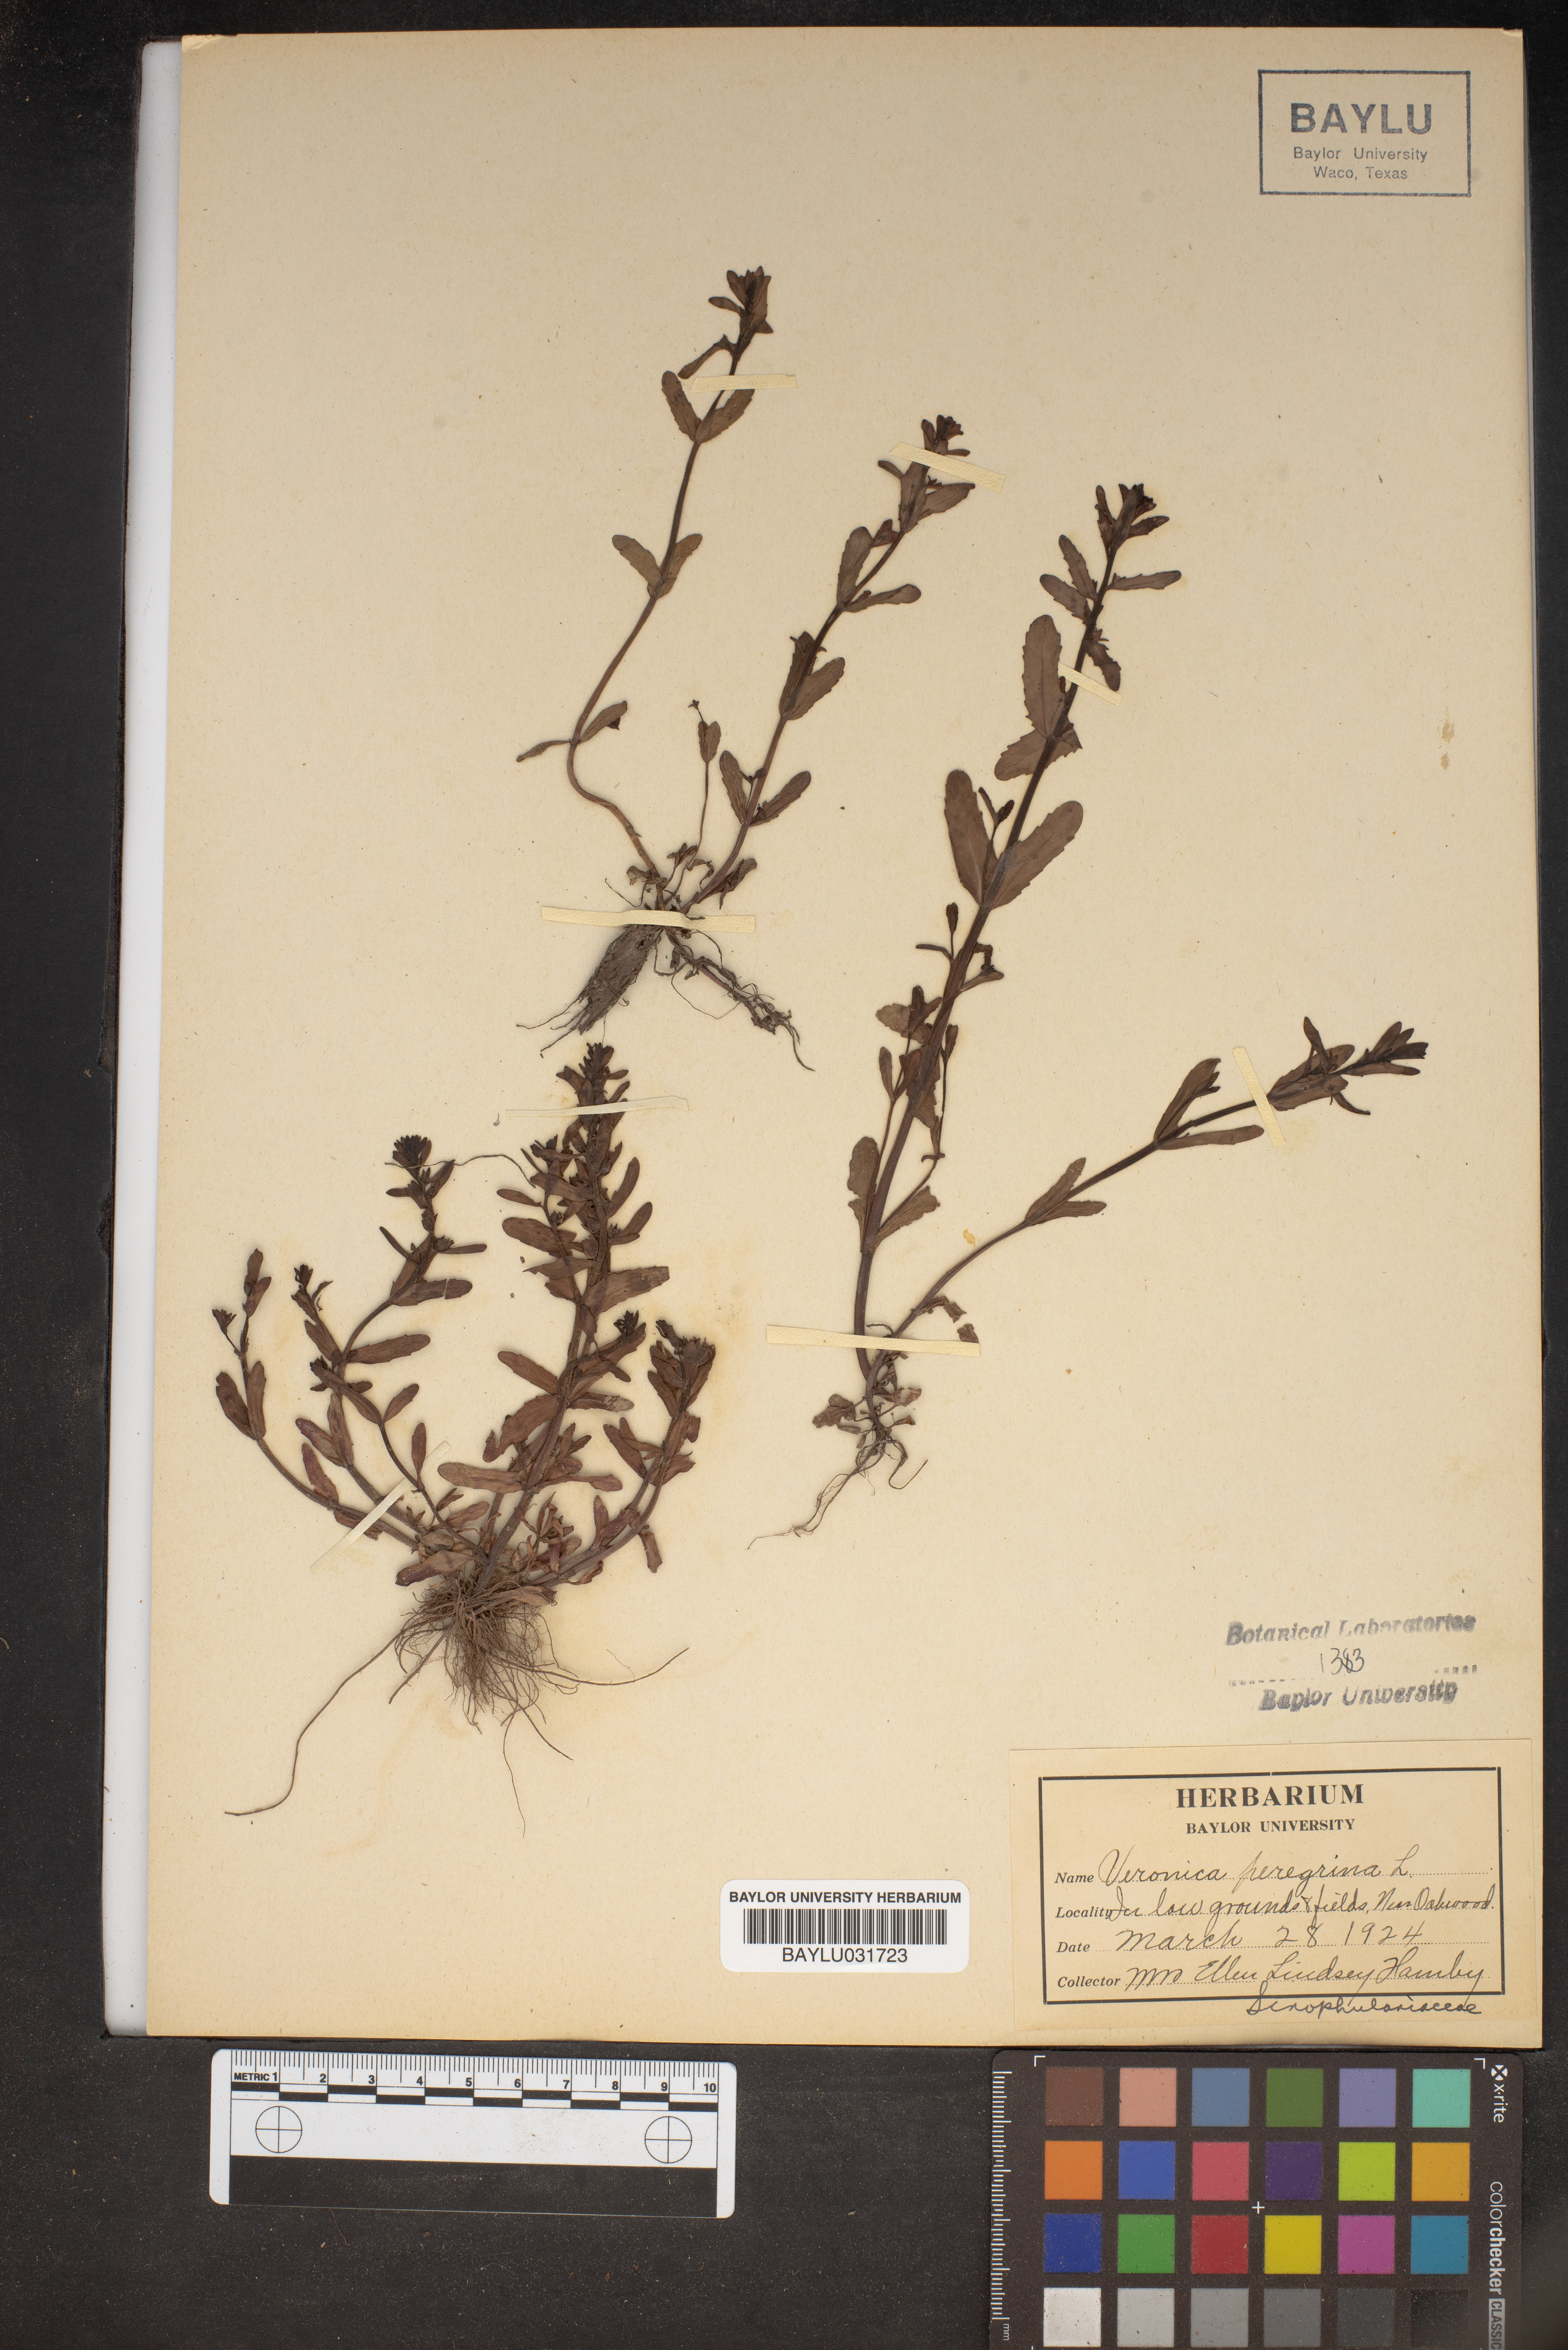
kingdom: Plantae
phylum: Tracheophyta
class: Magnoliopsida
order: Lamiales
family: Plantaginaceae
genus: Veronica
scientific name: Veronica peregrina
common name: Neckweed
